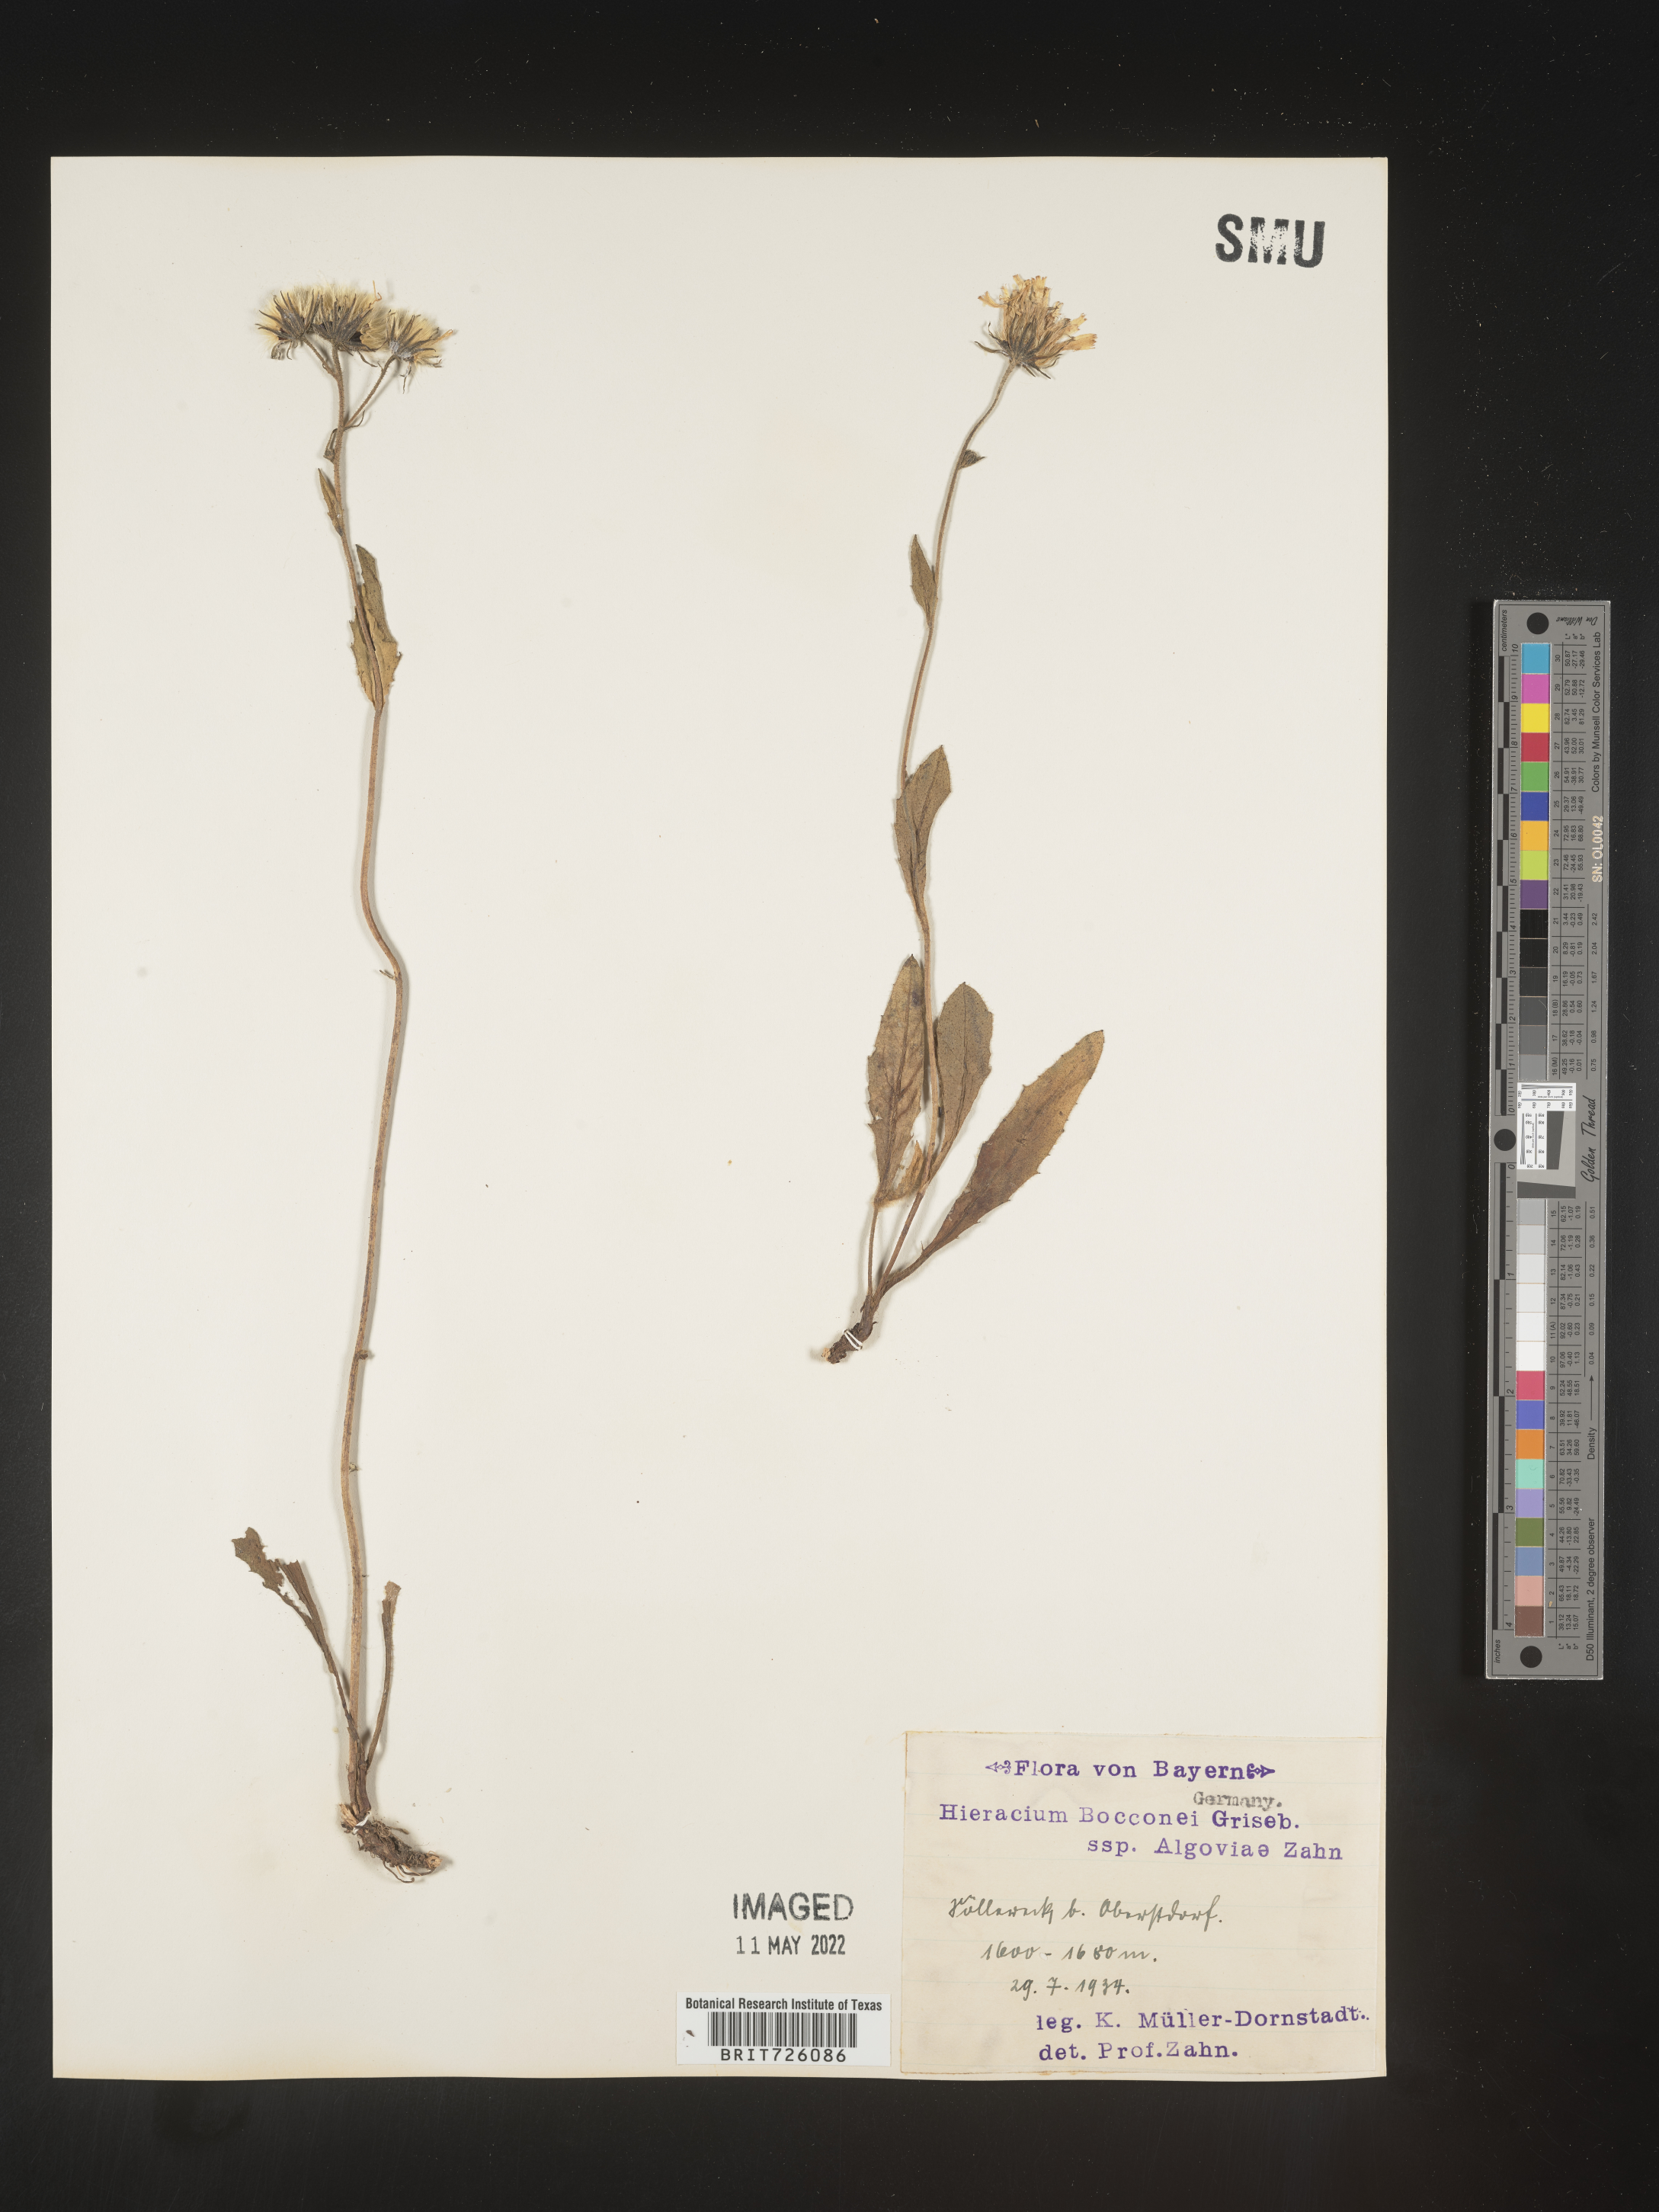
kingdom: Plantae
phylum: Tracheophyta
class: Magnoliopsida
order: Asterales
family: Asteraceae
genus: Hieracium
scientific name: Hieracium
